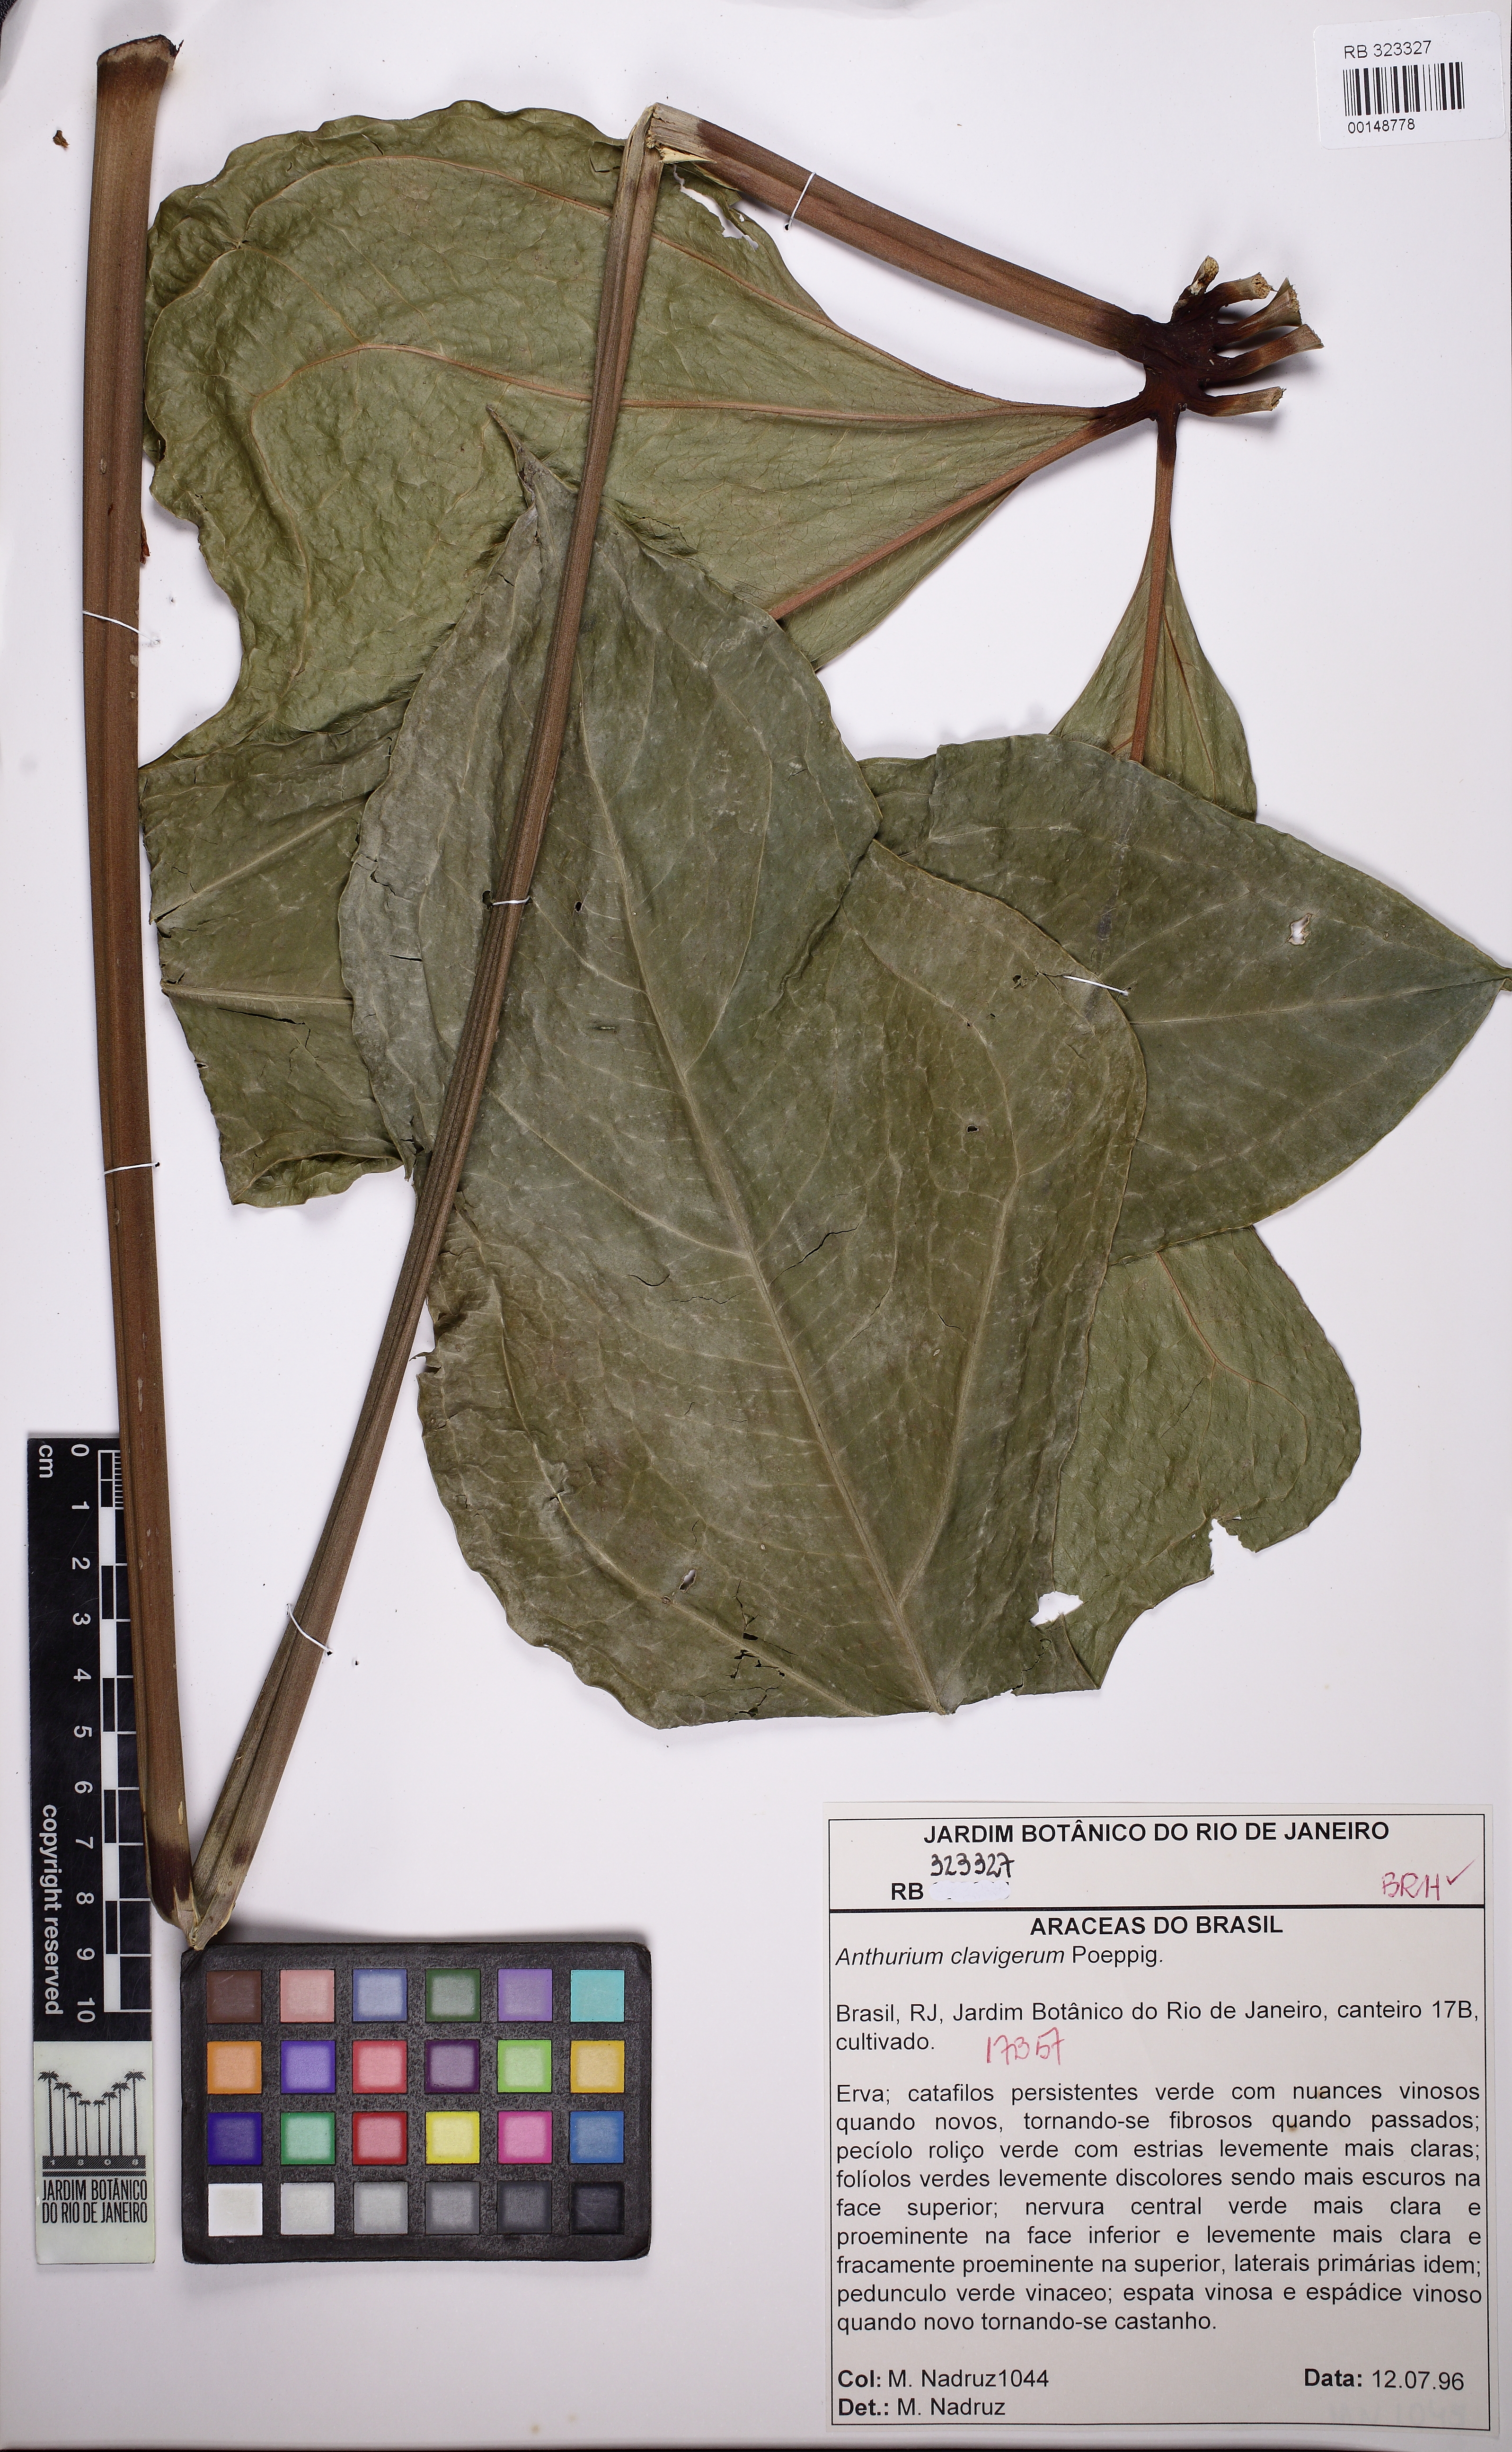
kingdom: Plantae
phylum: Tracheophyta
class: Liliopsida
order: Alismatales
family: Araceae
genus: Anthurium
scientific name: Anthurium clavigerum
